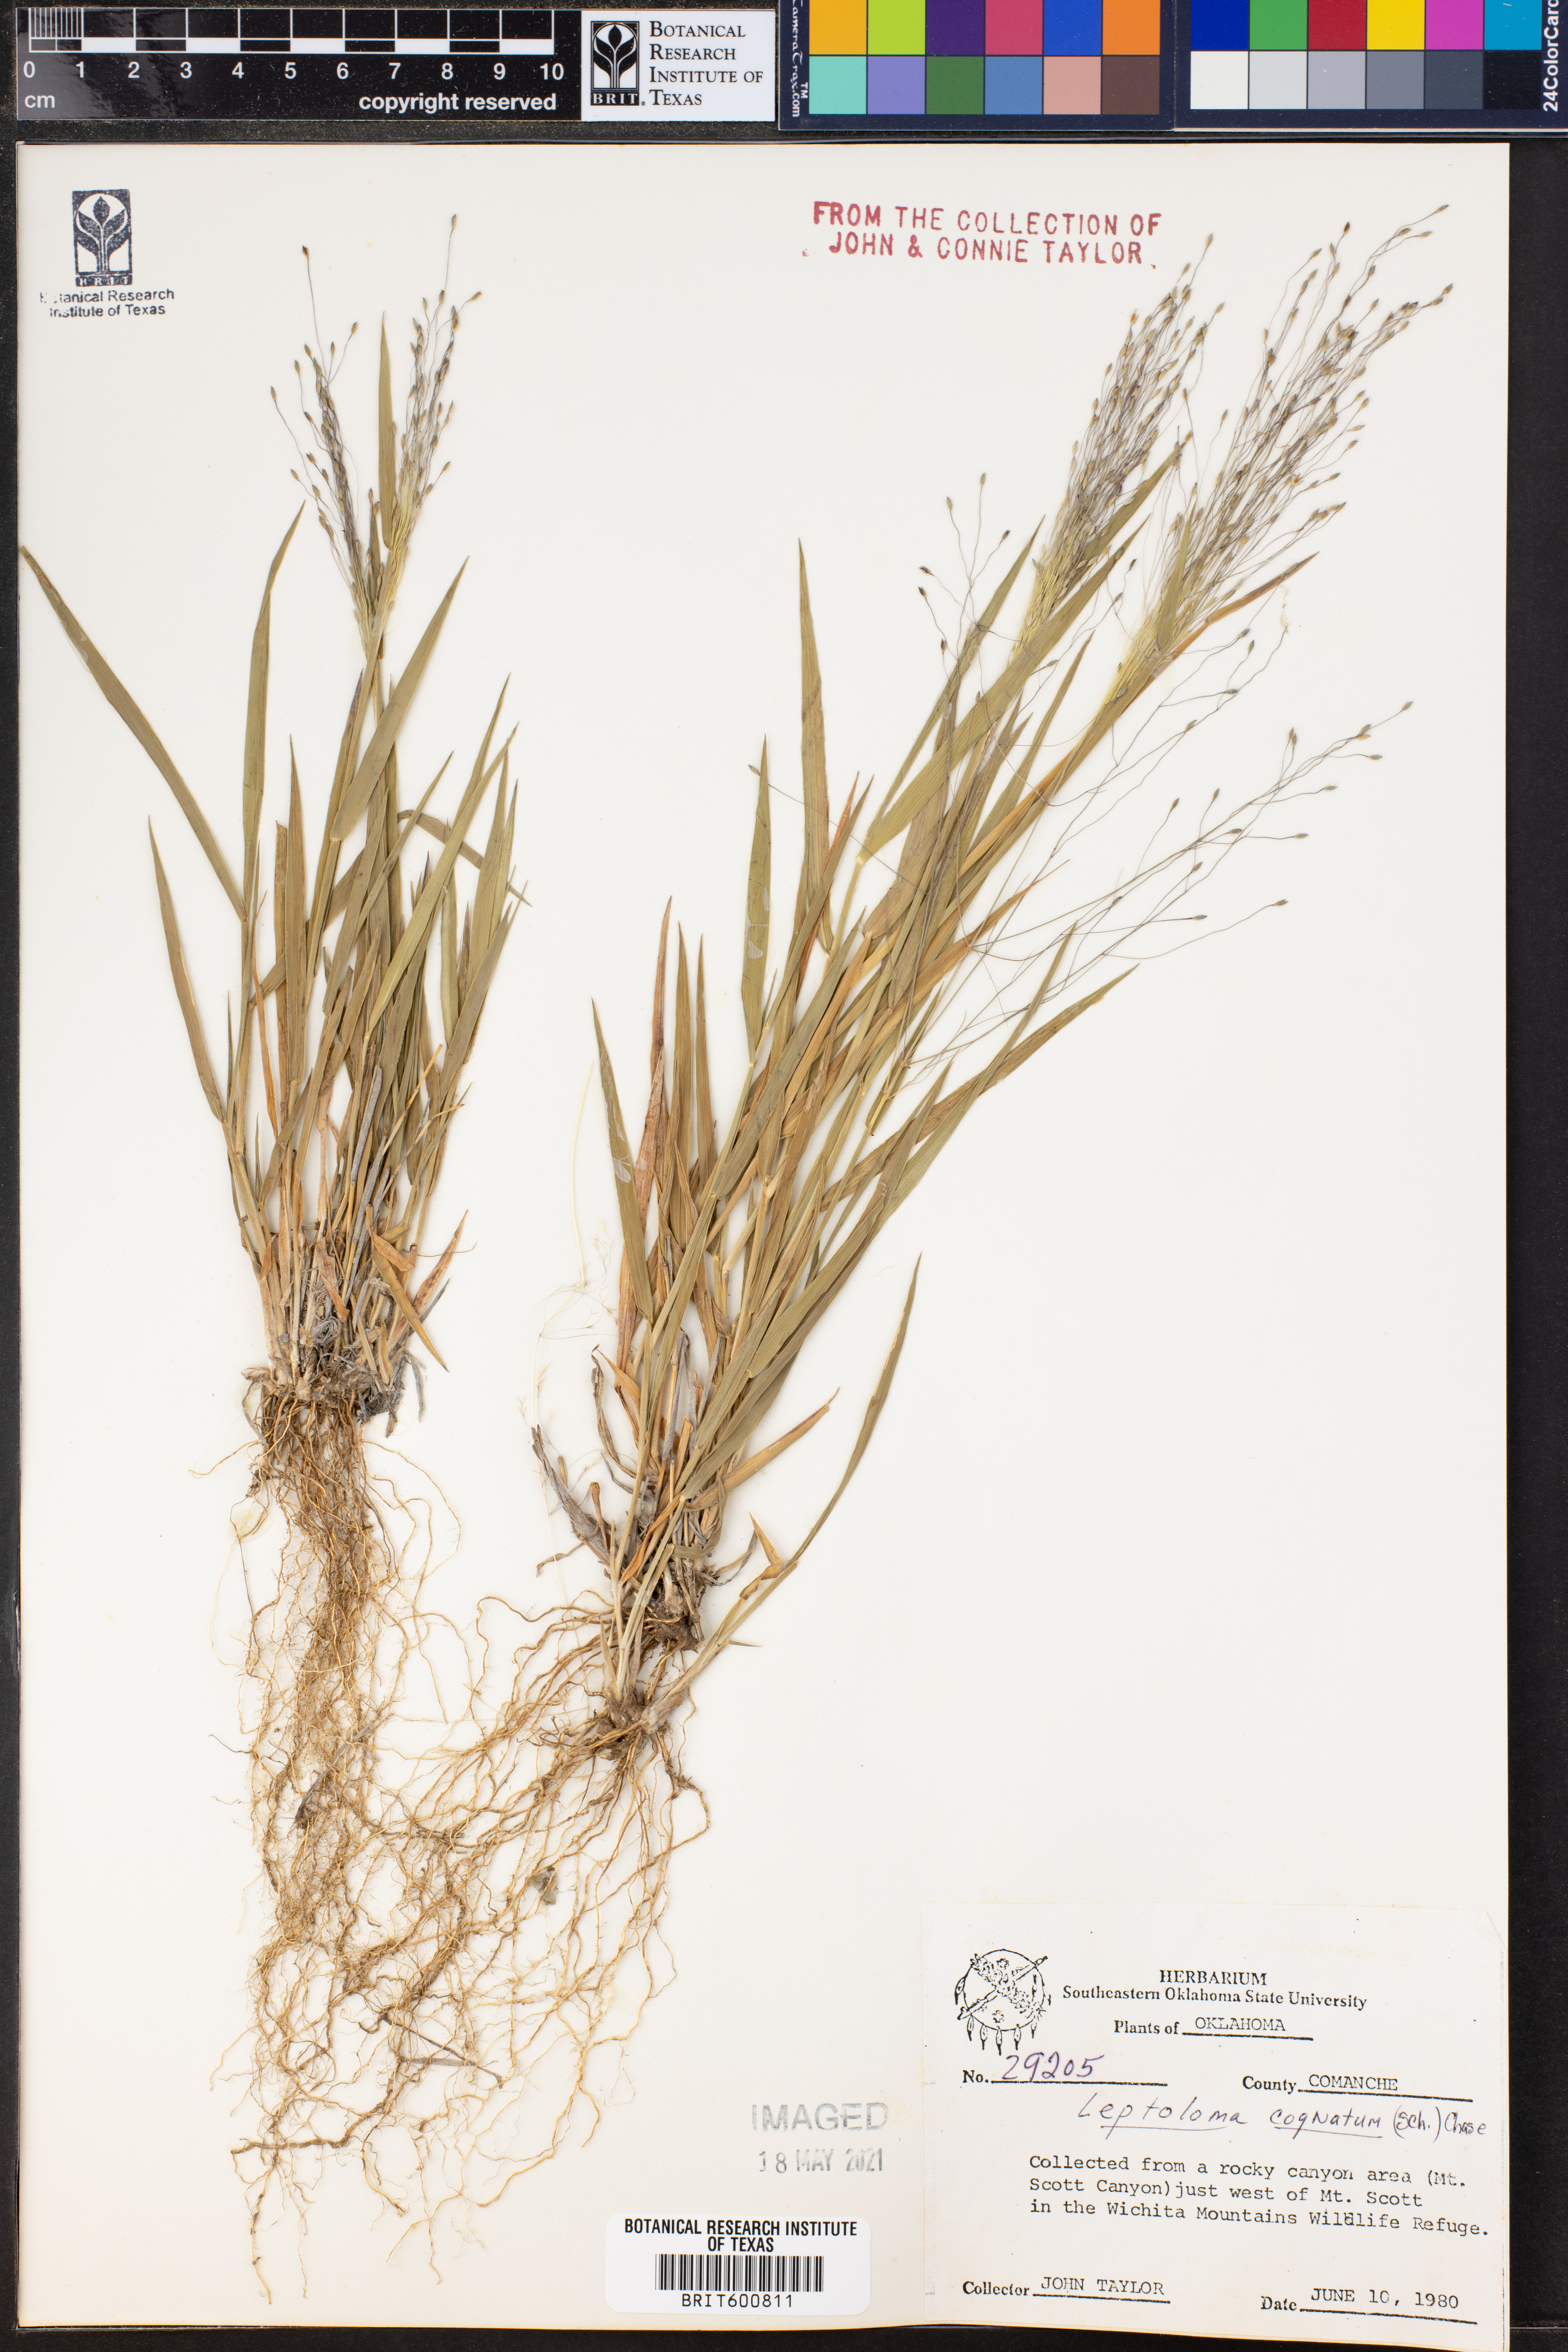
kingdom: Plantae
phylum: Tracheophyta
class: Liliopsida
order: Poales
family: Poaceae
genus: Digitaria
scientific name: Digitaria cognata
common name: Fall witchgrass
